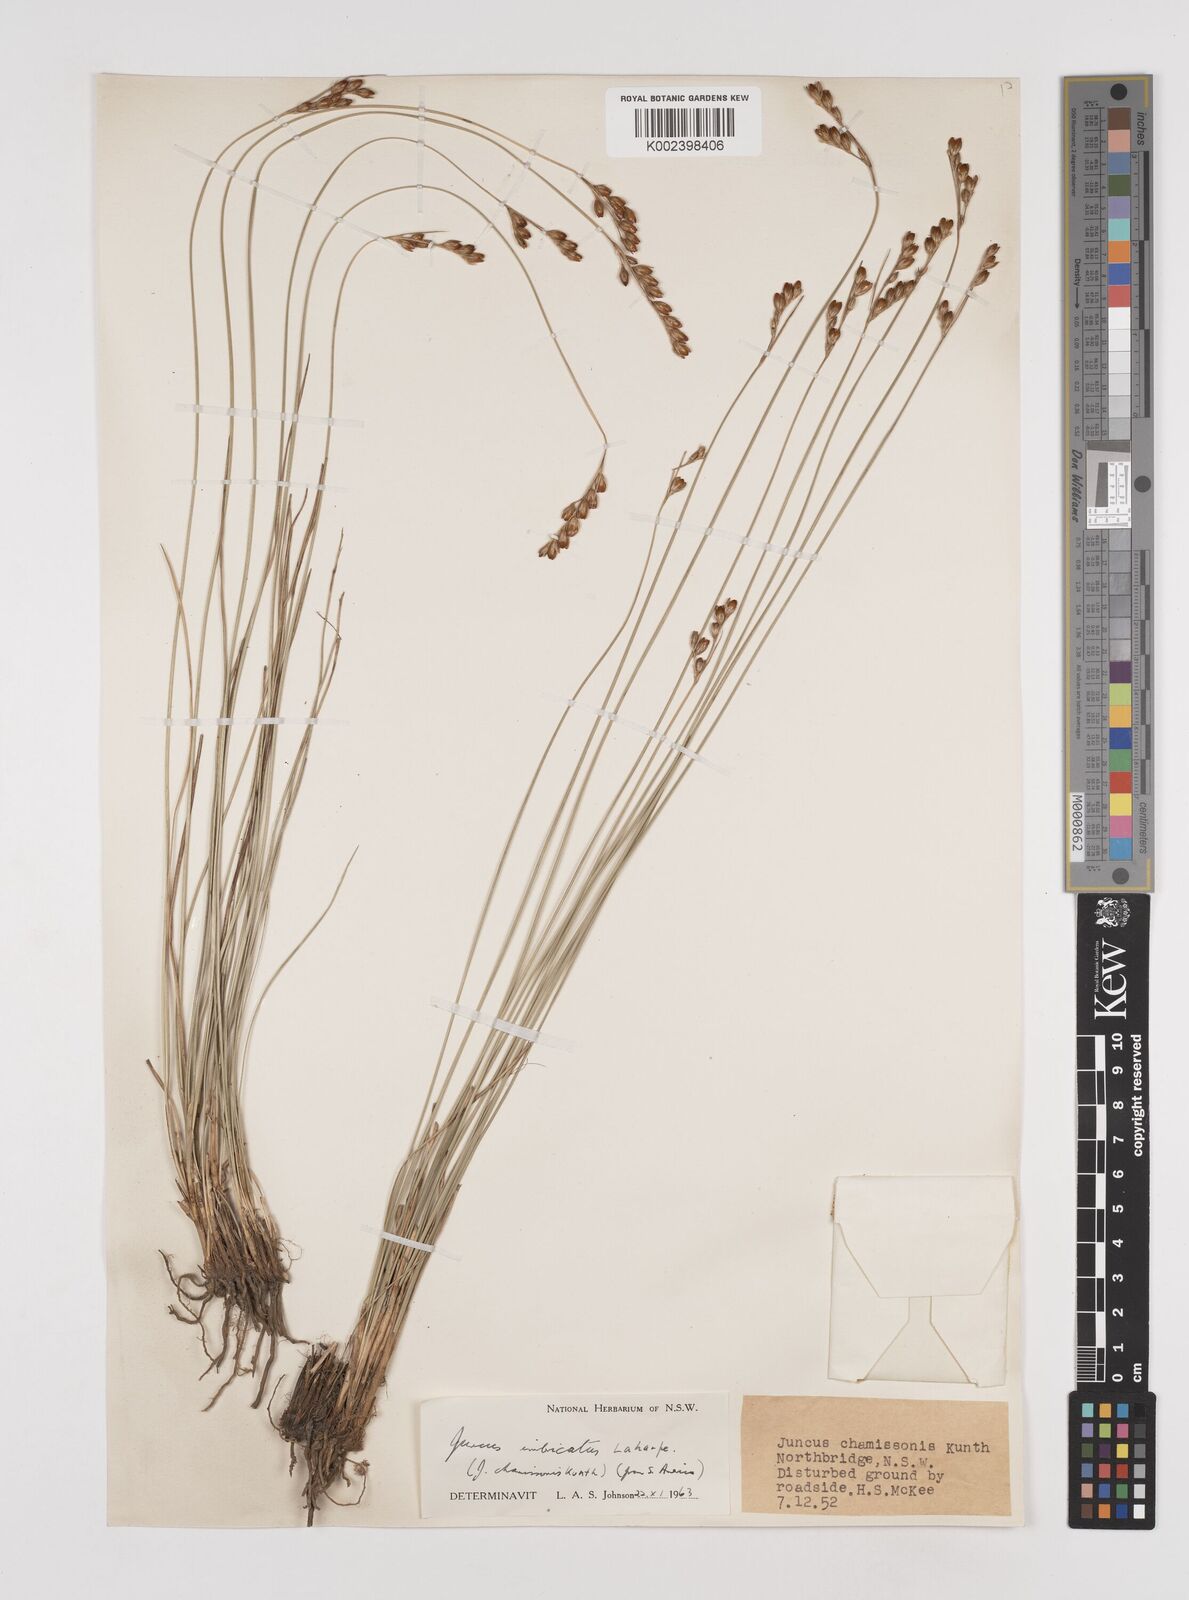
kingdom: Plantae
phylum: Tracheophyta
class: Liliopsida
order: Poales
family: Juncaceae
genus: Juncus
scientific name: Juncus imbricatus
